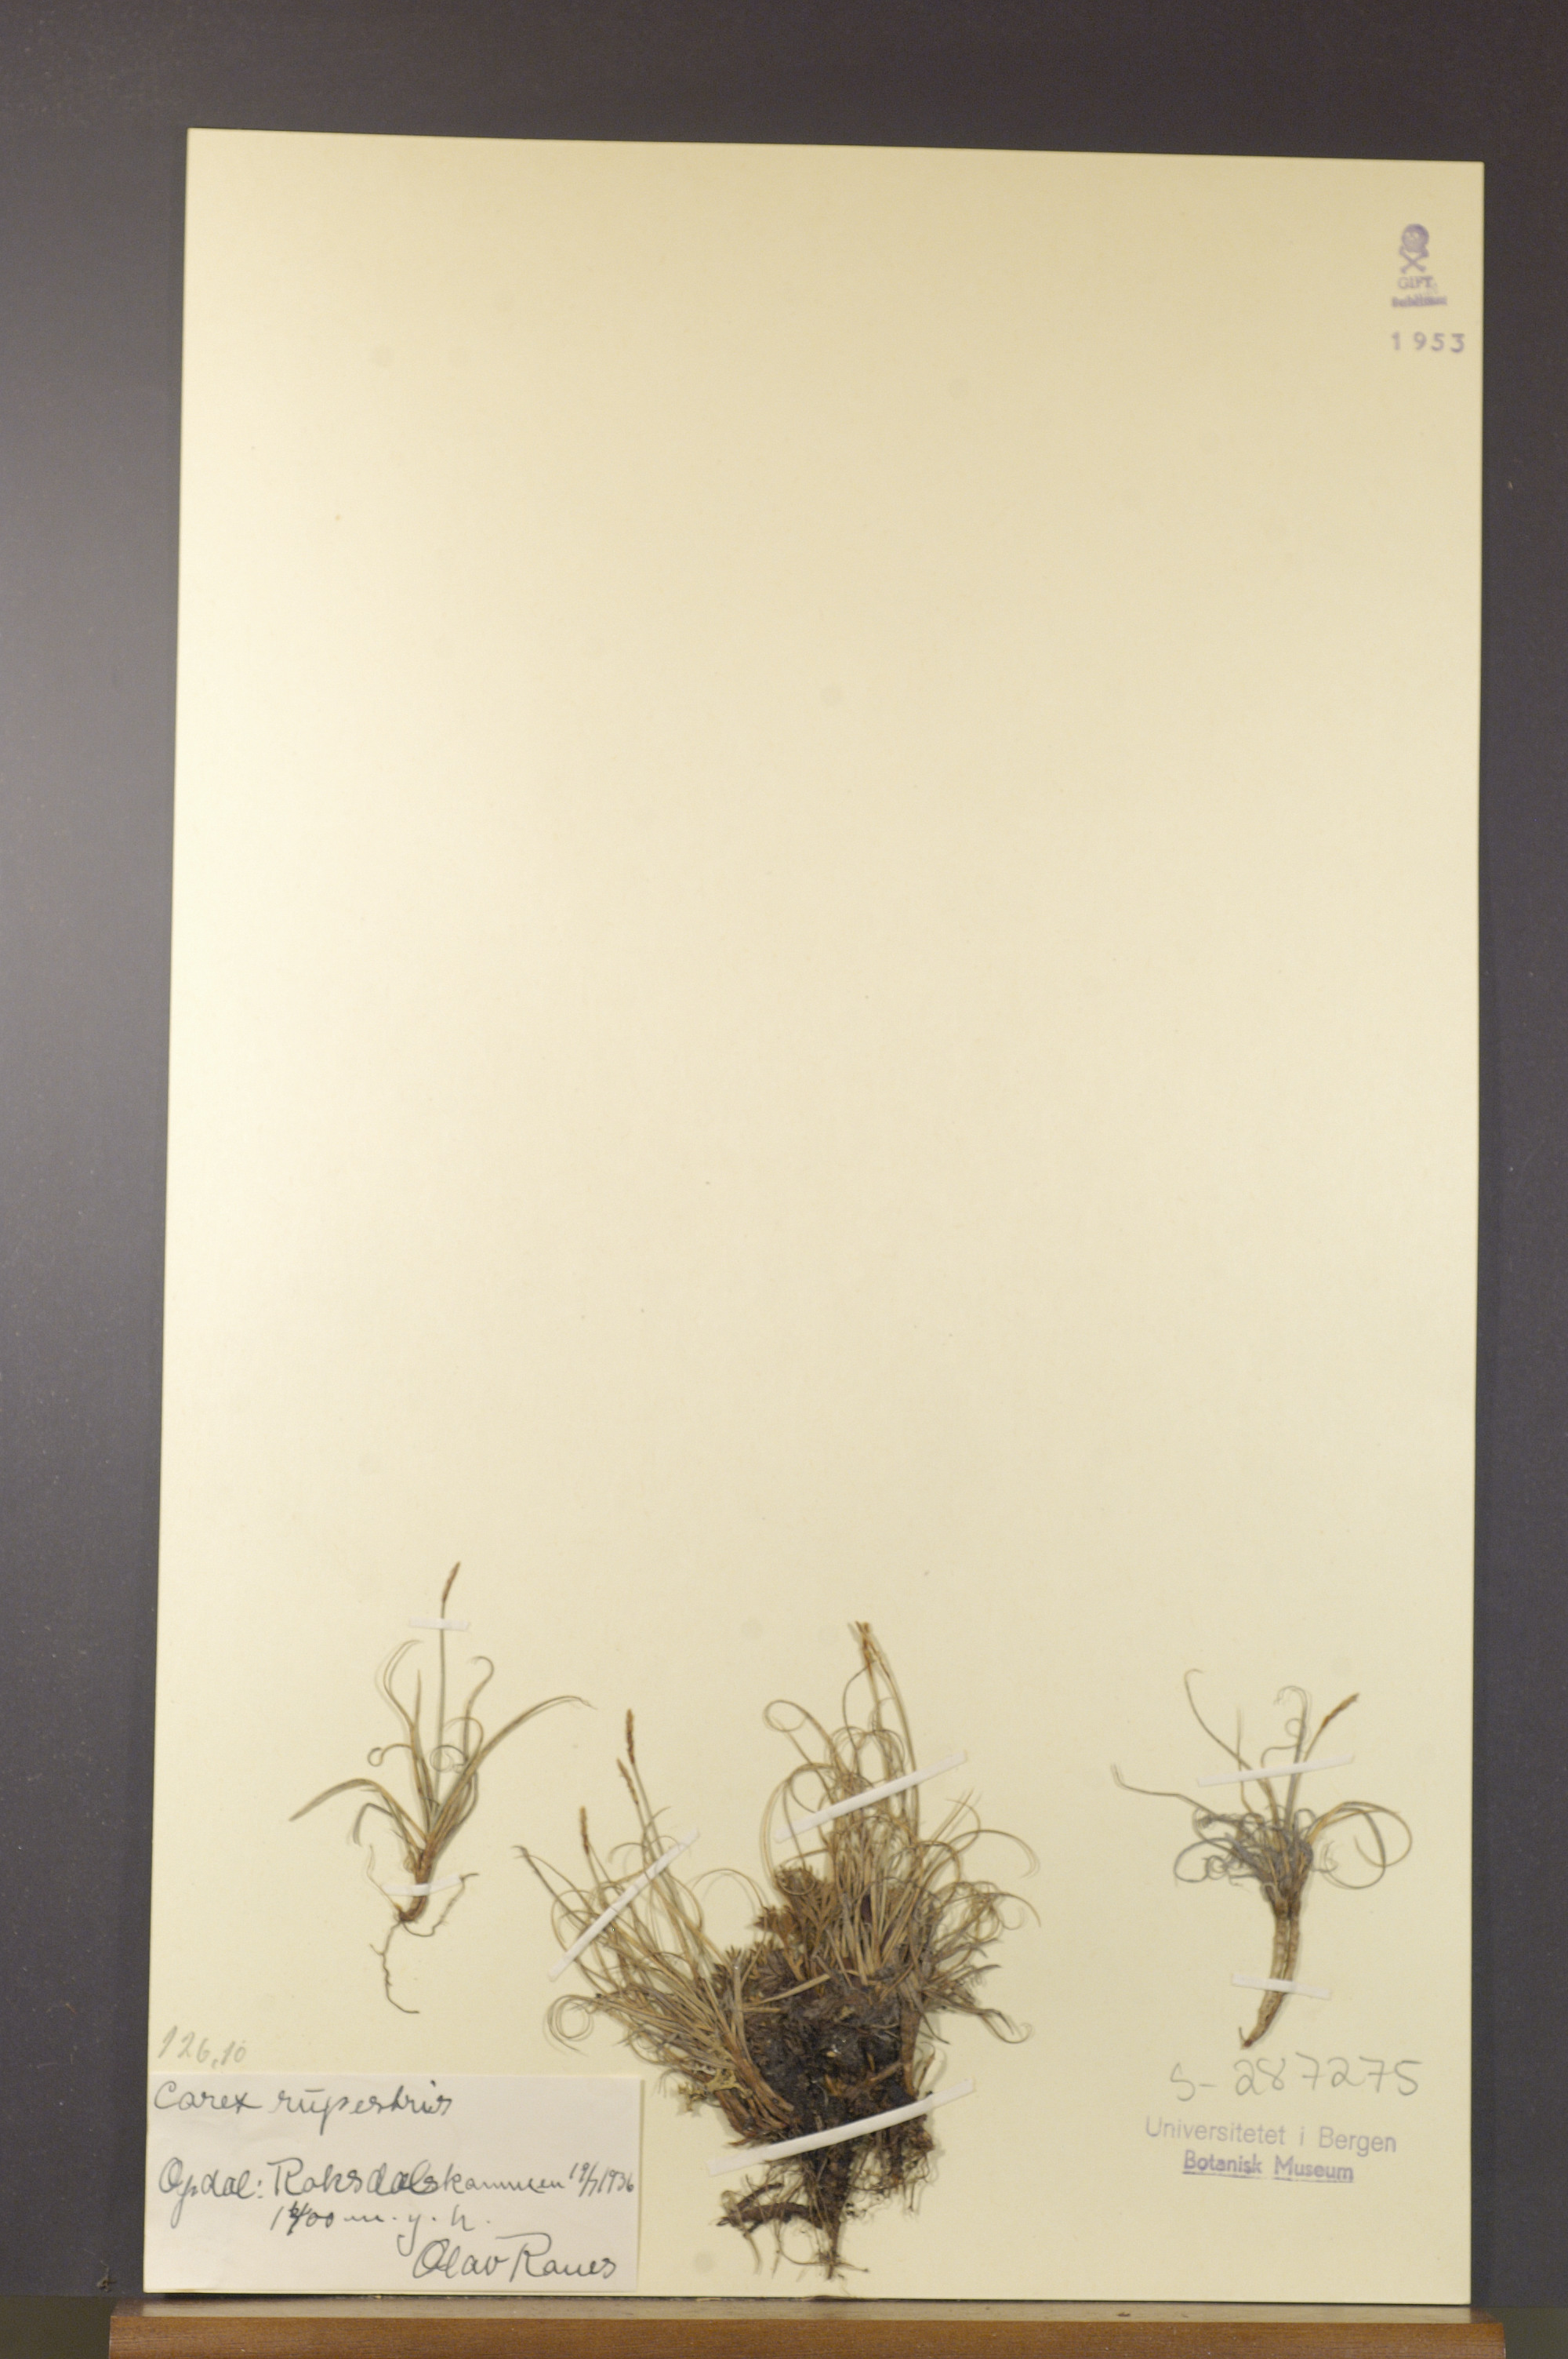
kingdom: Plantae
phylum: Tracheophyta
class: Liliopsida
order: Poales
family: Cyperaceae
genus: Carex
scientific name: Carex rupestris
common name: Rock sedge
